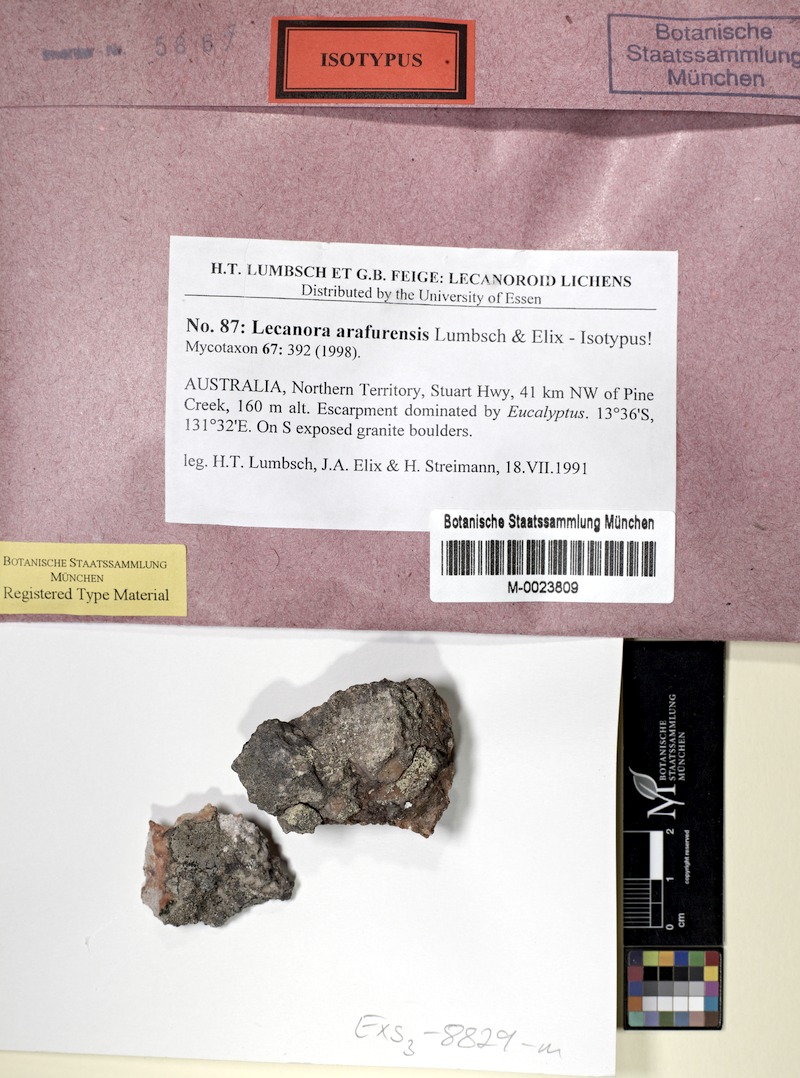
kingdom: Fungi
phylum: Ascomycota
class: Lecanoromycetes
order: Lecanorales
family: Lecanoraceae
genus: Lecanora
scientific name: Lecanora arafurensis
